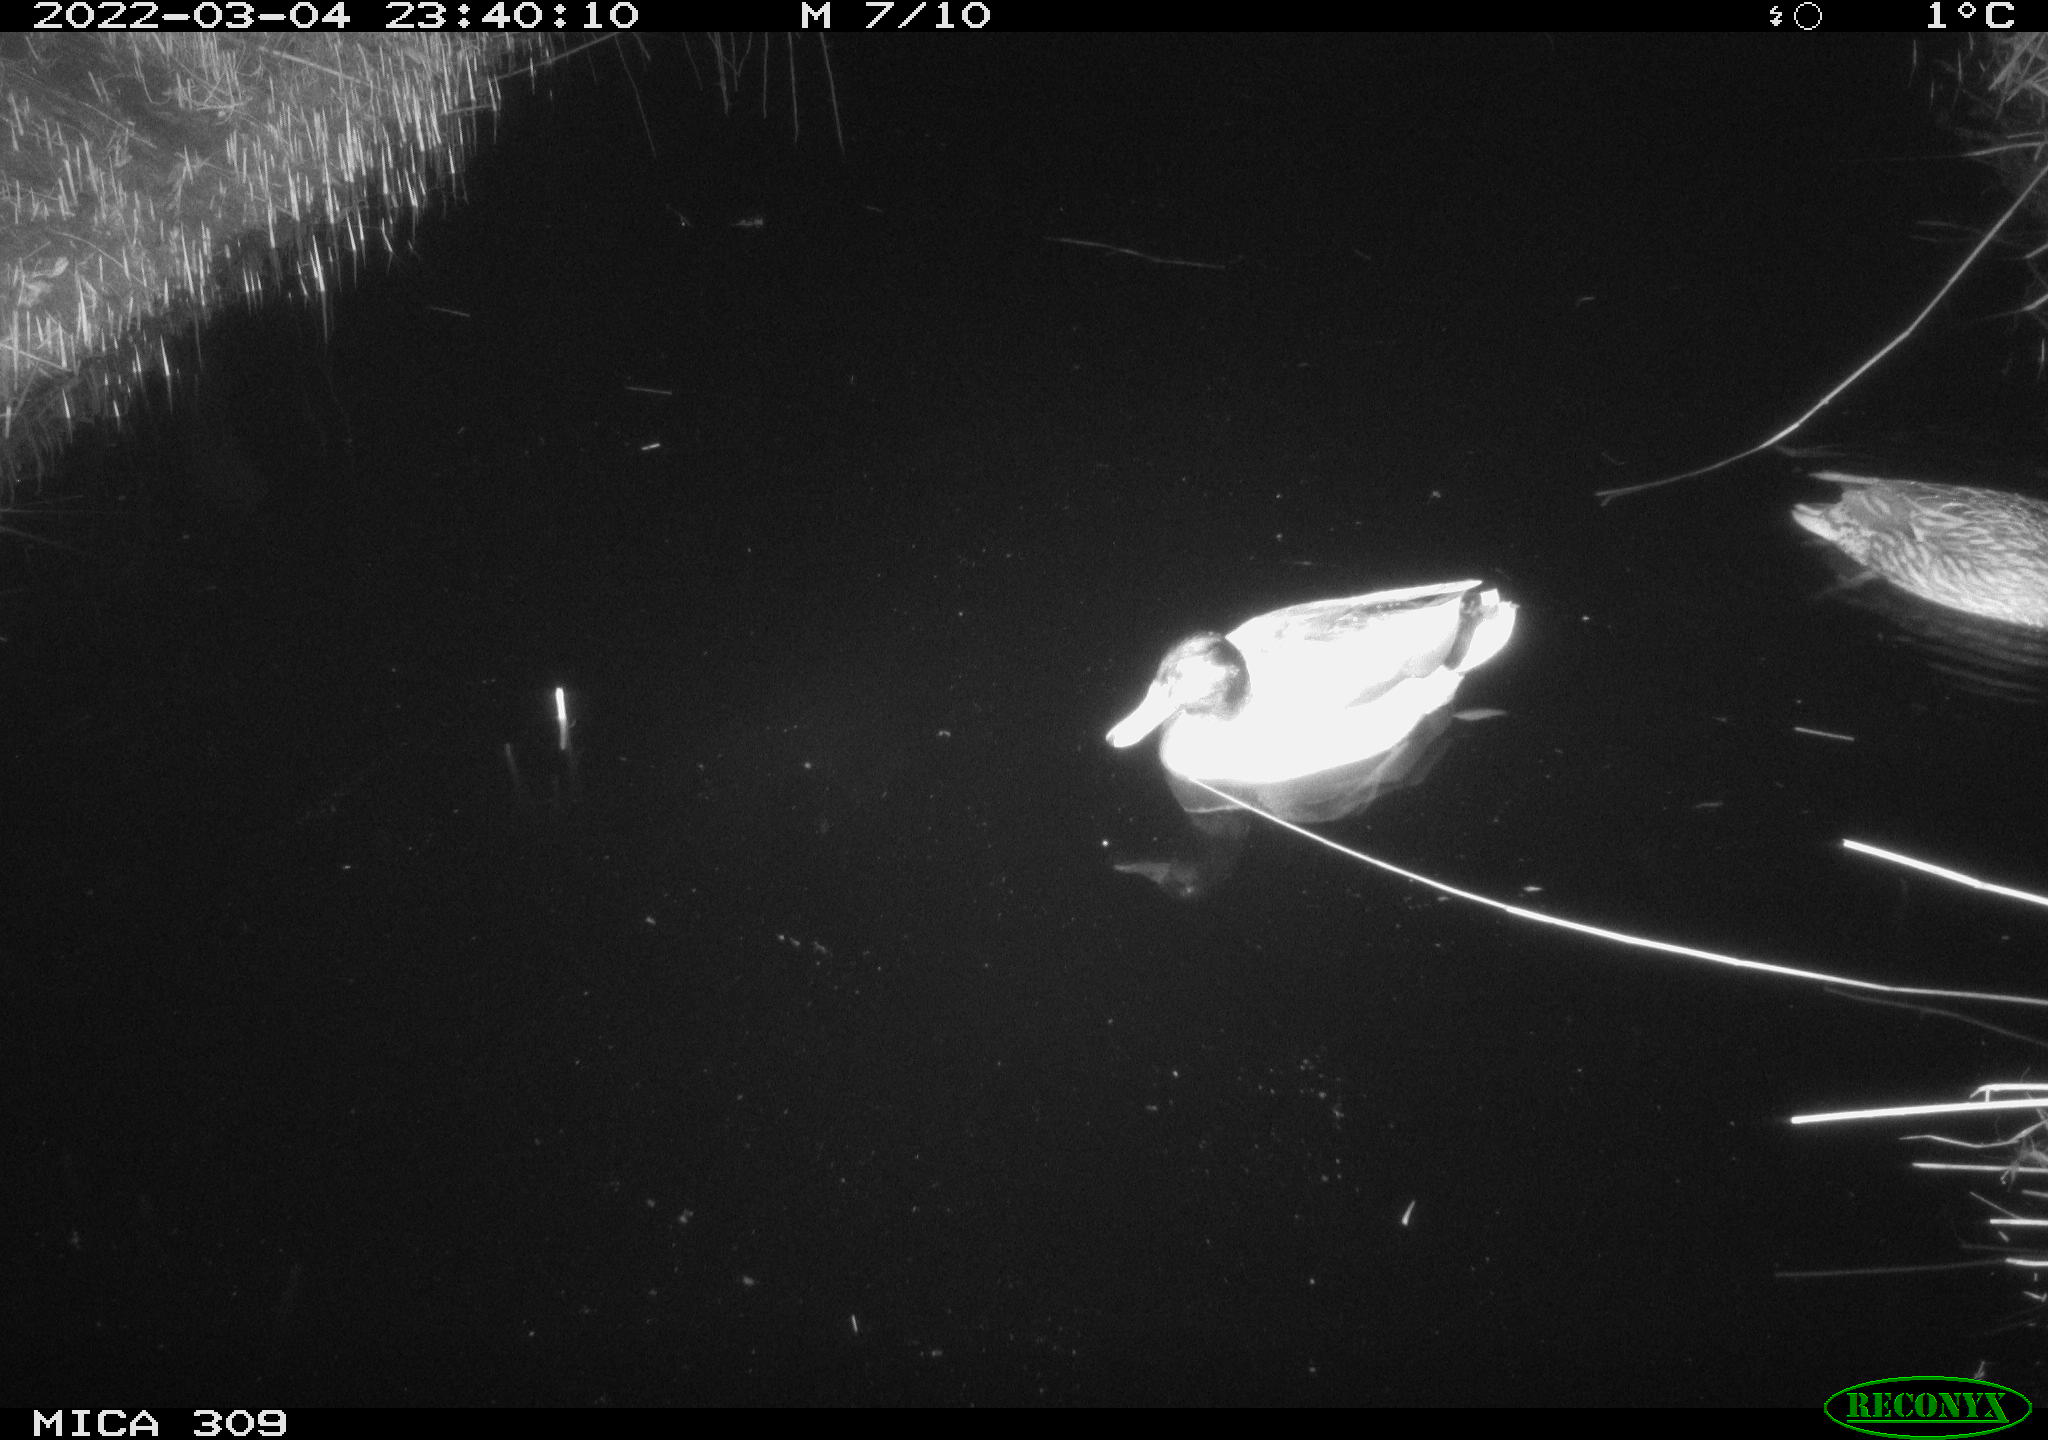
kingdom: Animalia
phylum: Chordata
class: Aves
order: Anseriformes
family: Anatidae
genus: Anas
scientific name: Anas platyrhynchos
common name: Mallard
